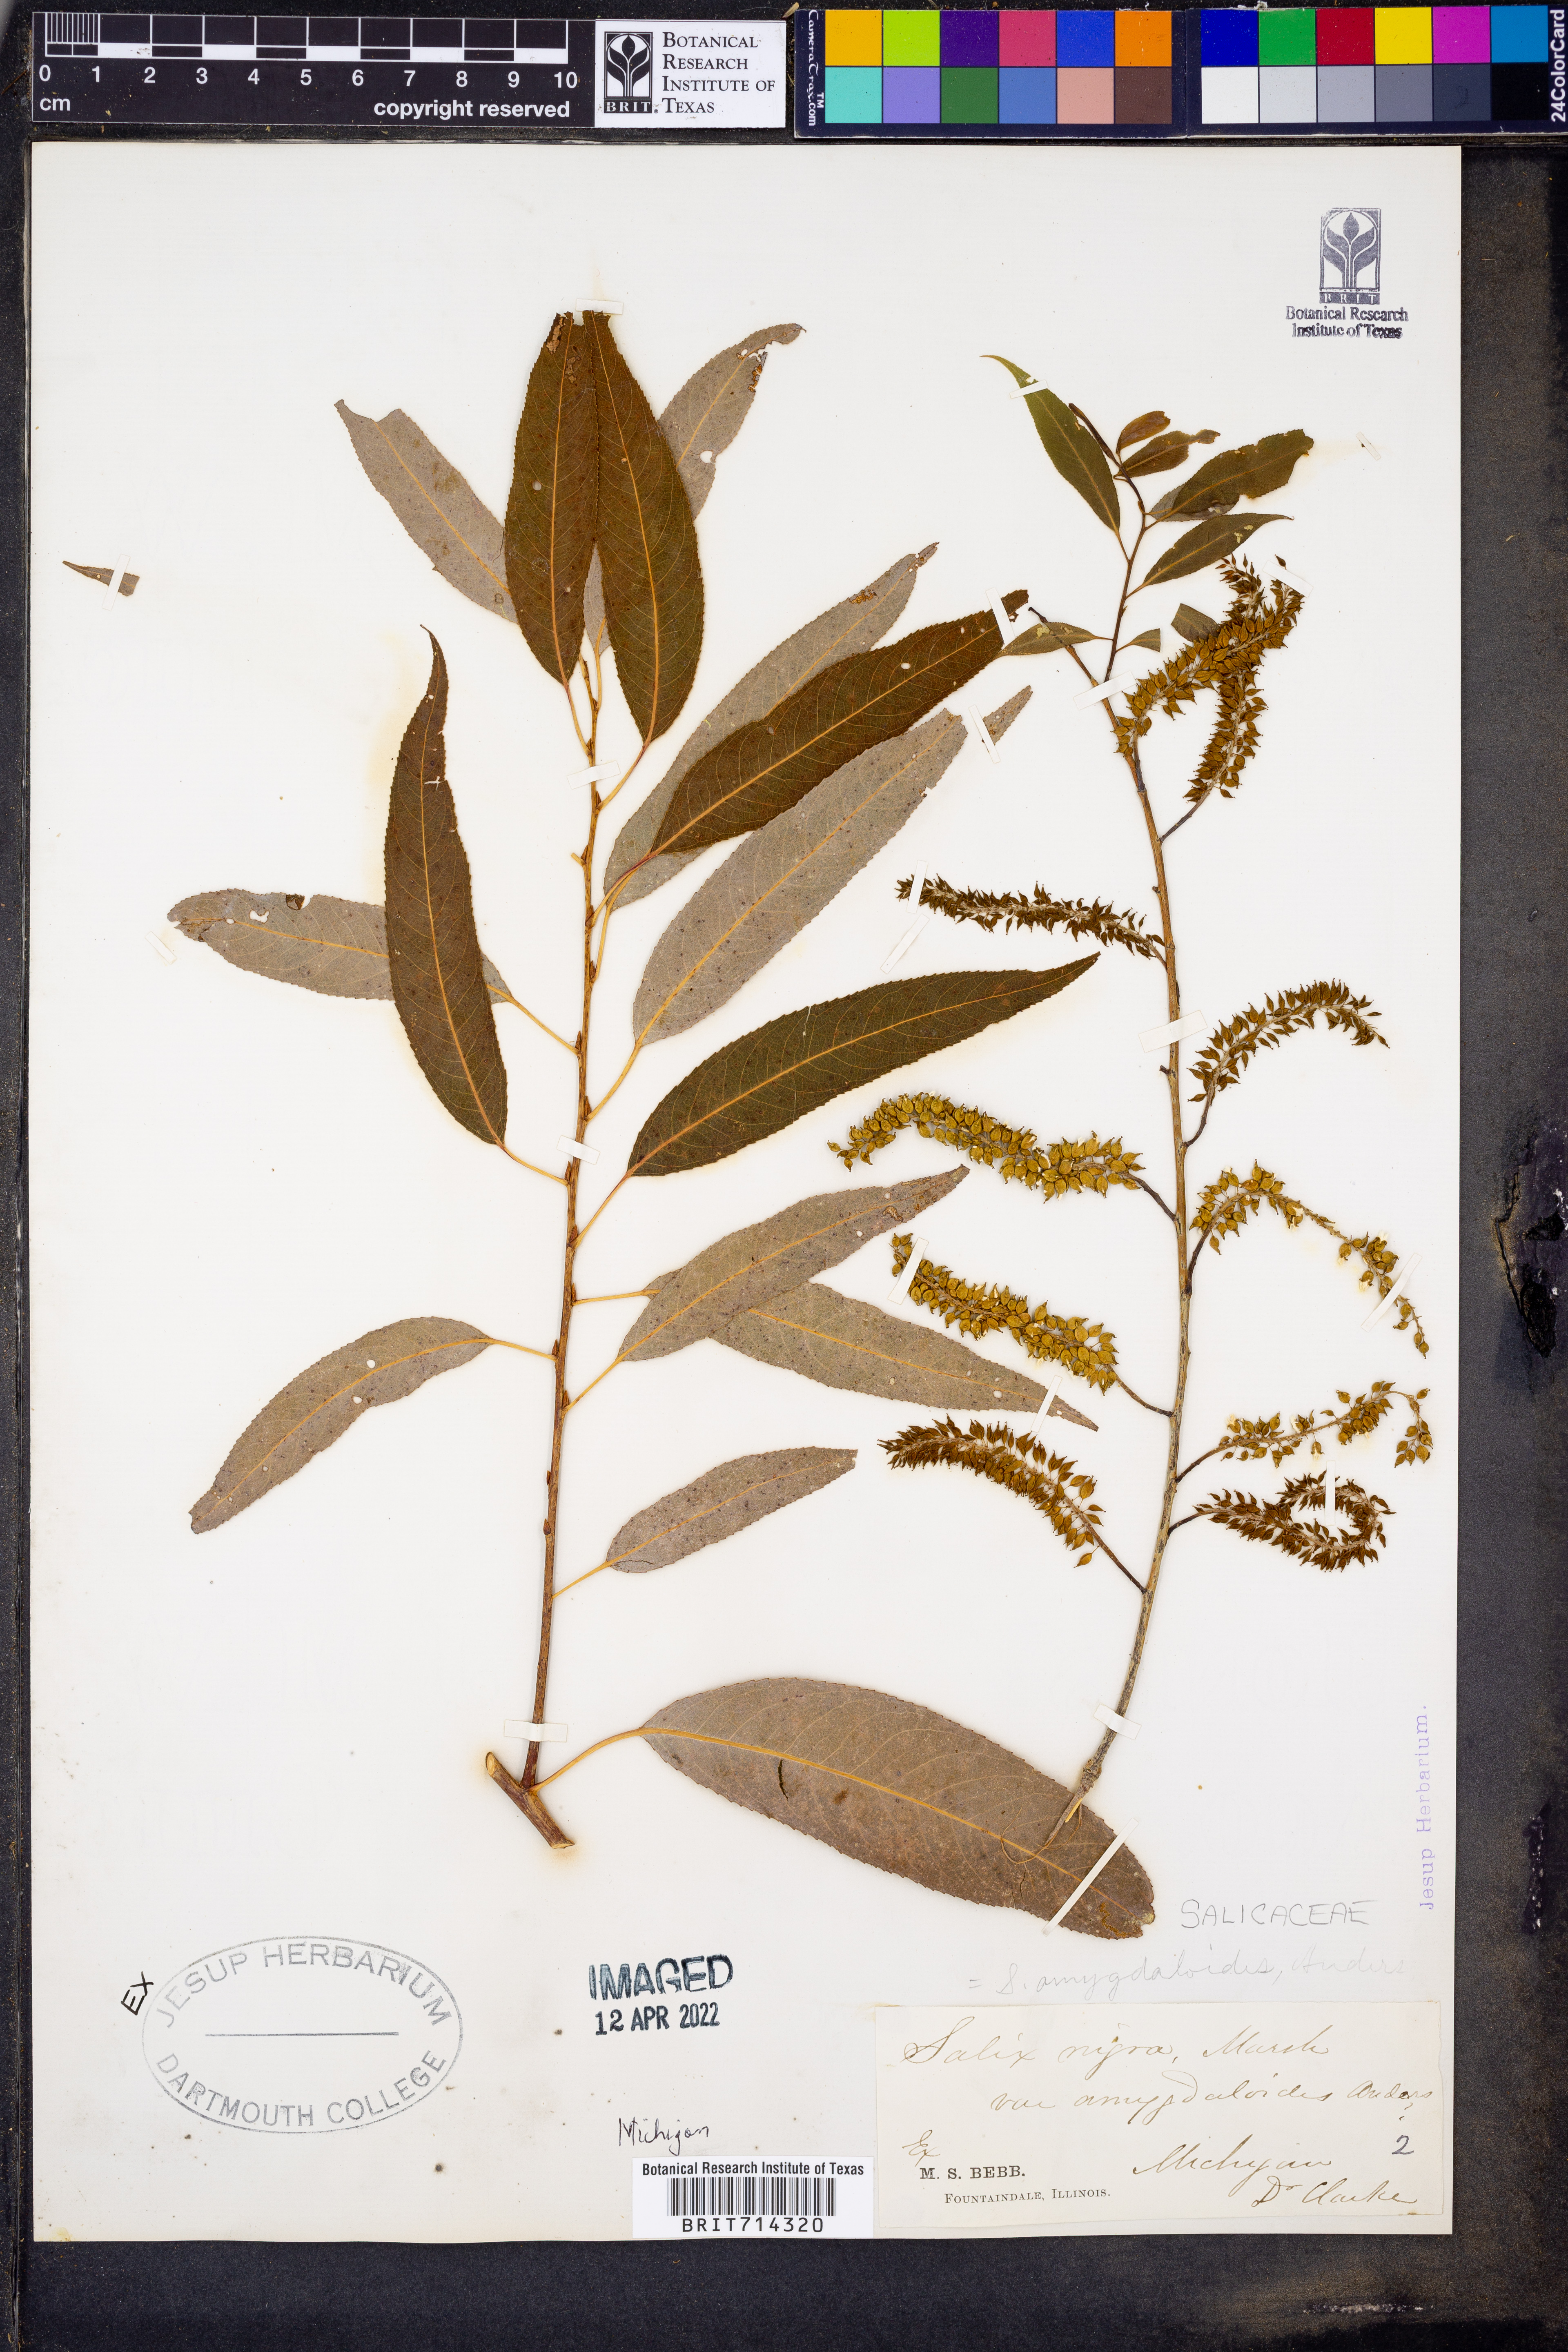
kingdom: Plantae
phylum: Tracheophyta
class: Magnoliopsida
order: Malpighiales
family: Salicaceae
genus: Salix
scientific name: Salix amygdaloides
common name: Peach leaf willow
